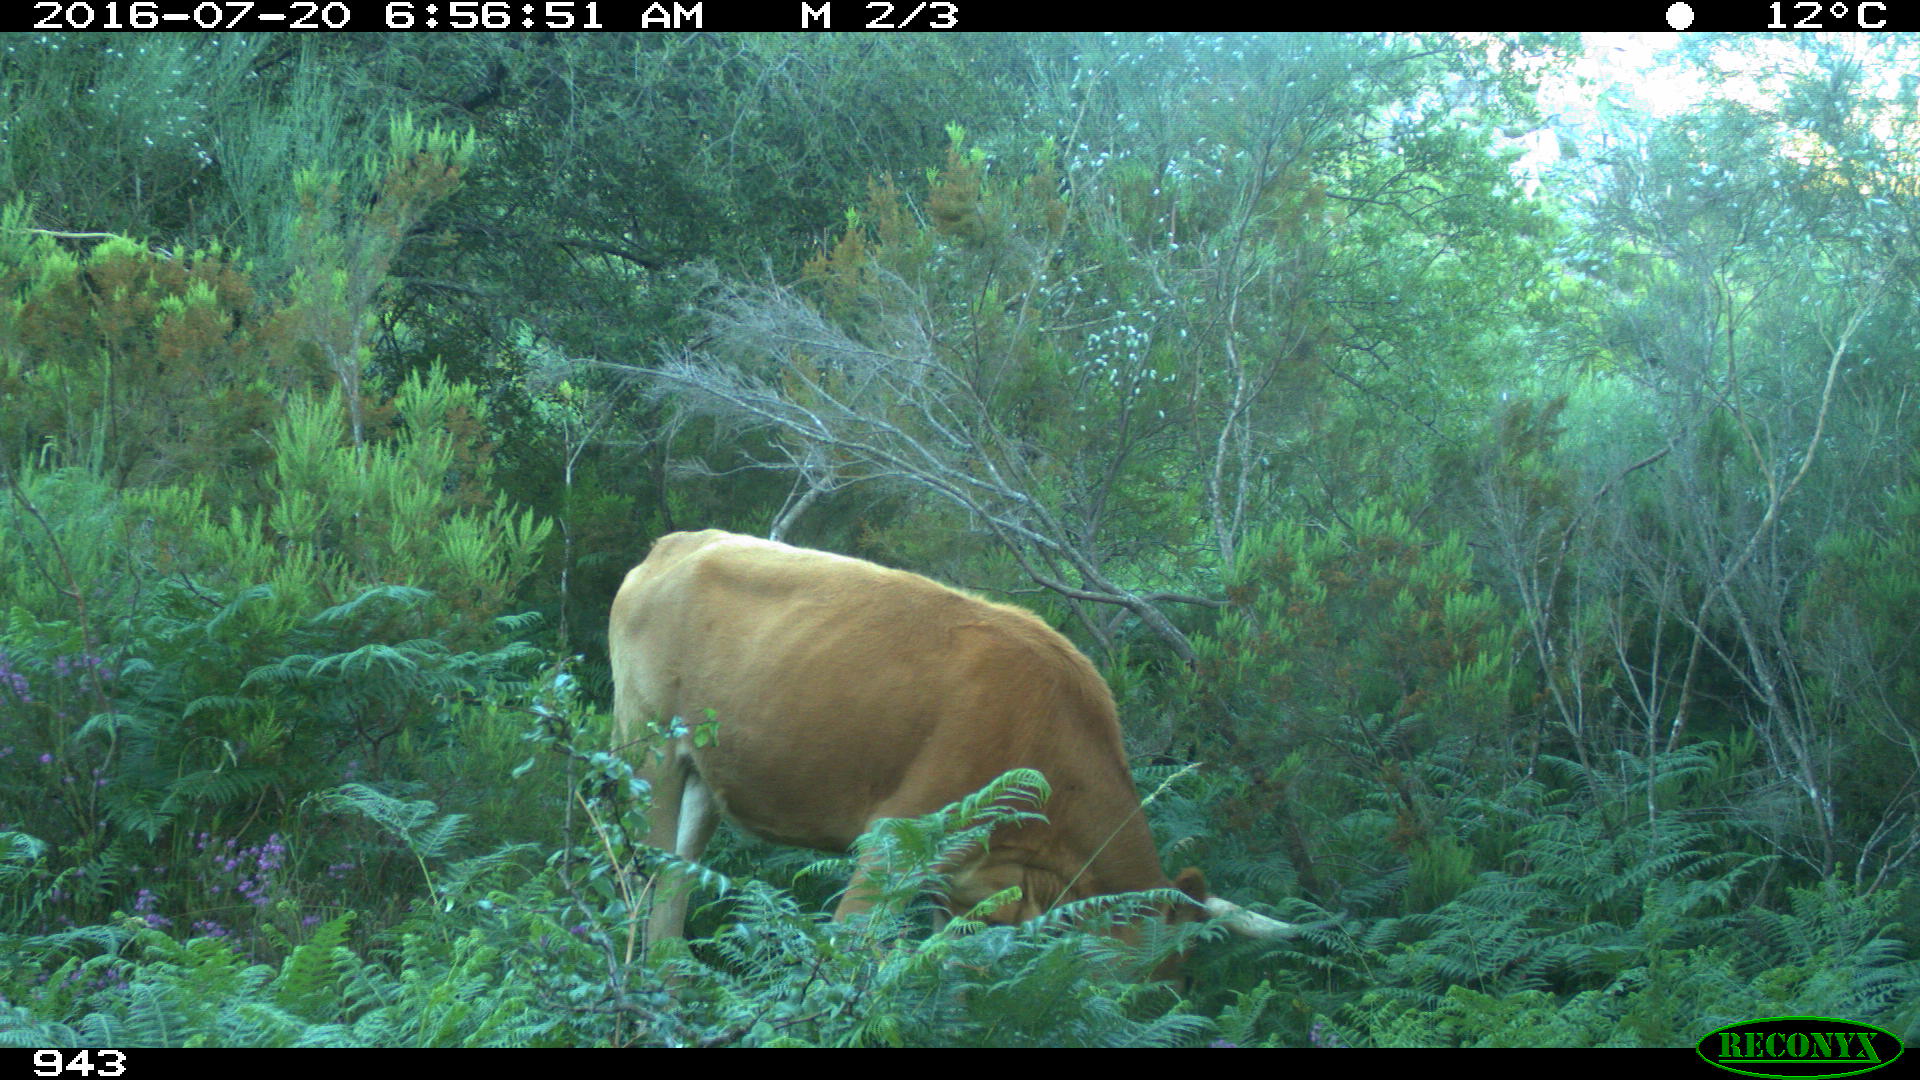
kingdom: Animalia
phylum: Chordata
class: Mammalia
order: Artiodactyla
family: Bovidae
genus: Bos
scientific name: Bos taurus
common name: Domesticated cattle
